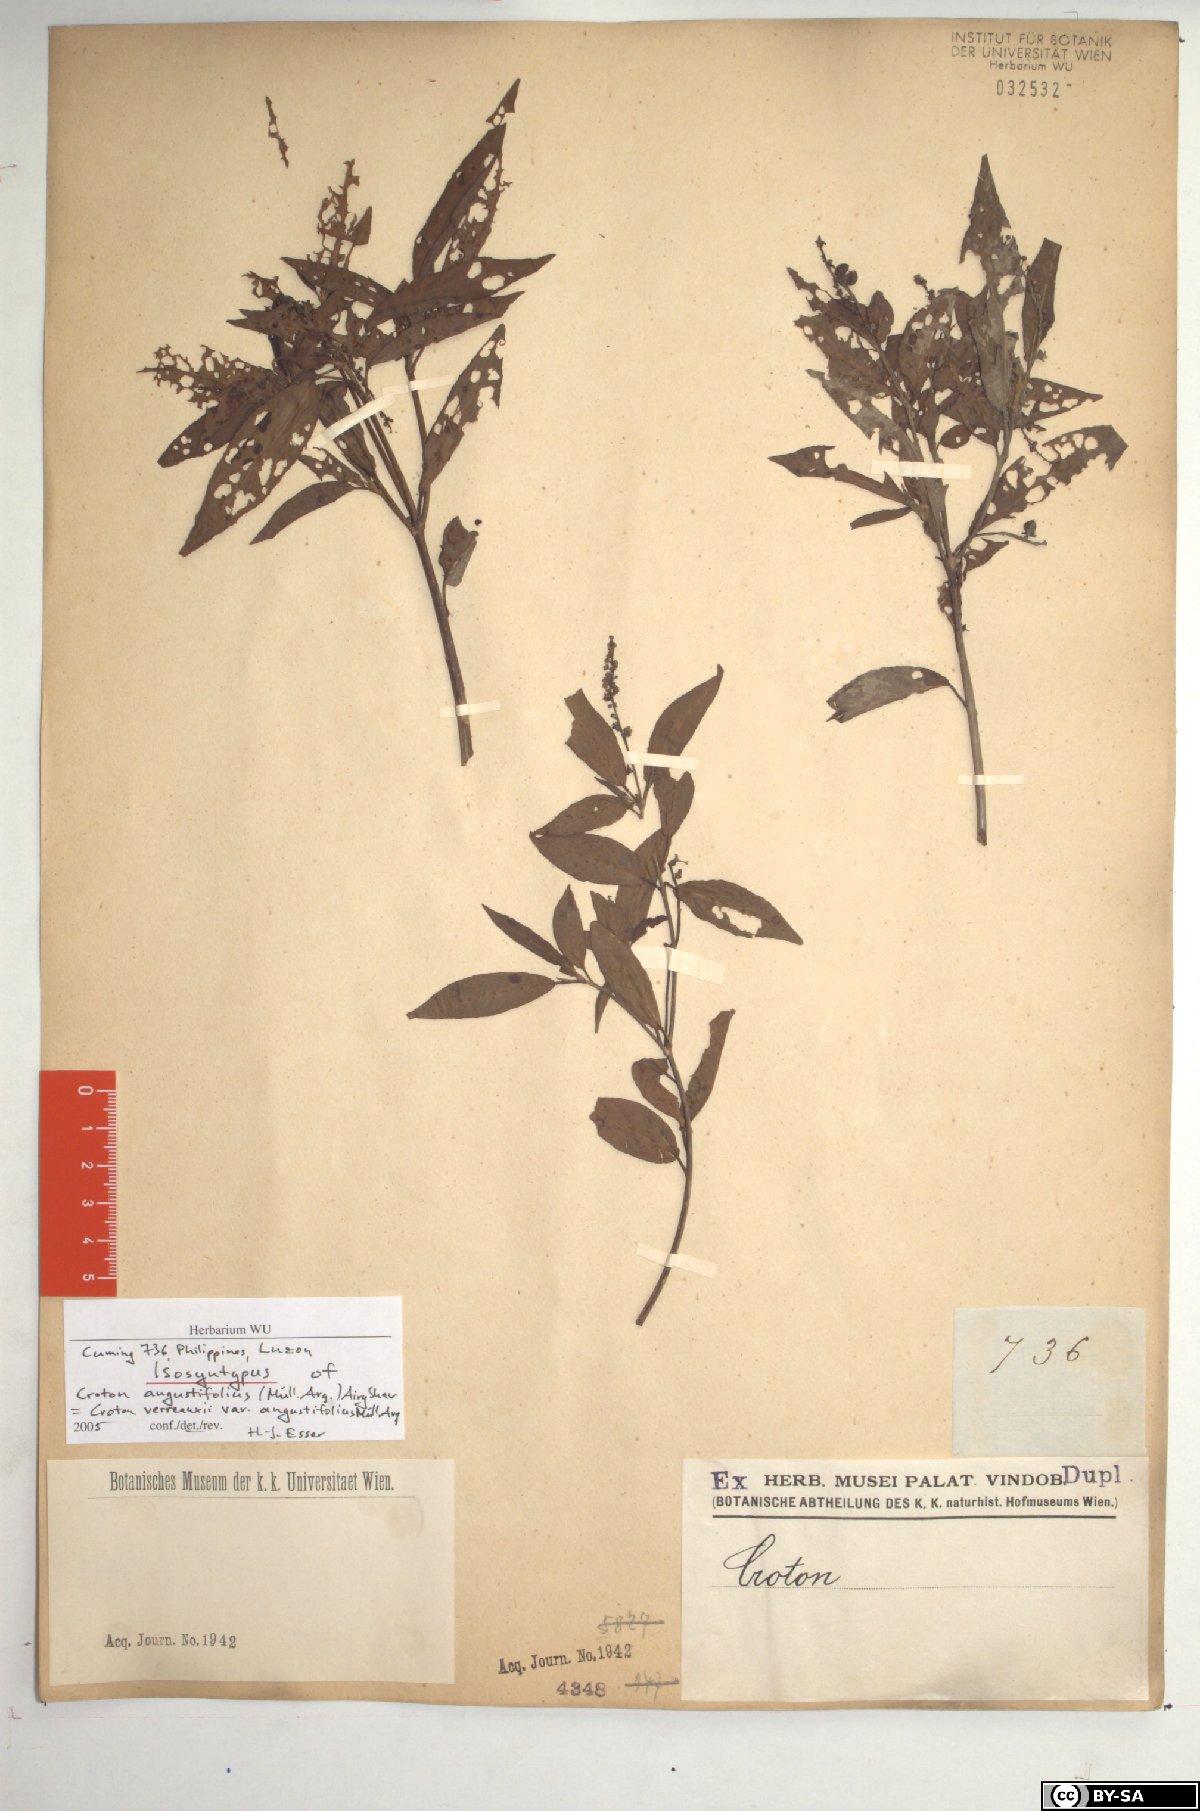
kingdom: Plantae
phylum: Tracheophyta
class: Magnoliopsida
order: Malpighiales
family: Euphorbiaceae
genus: Croton
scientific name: Croton verreauxii
